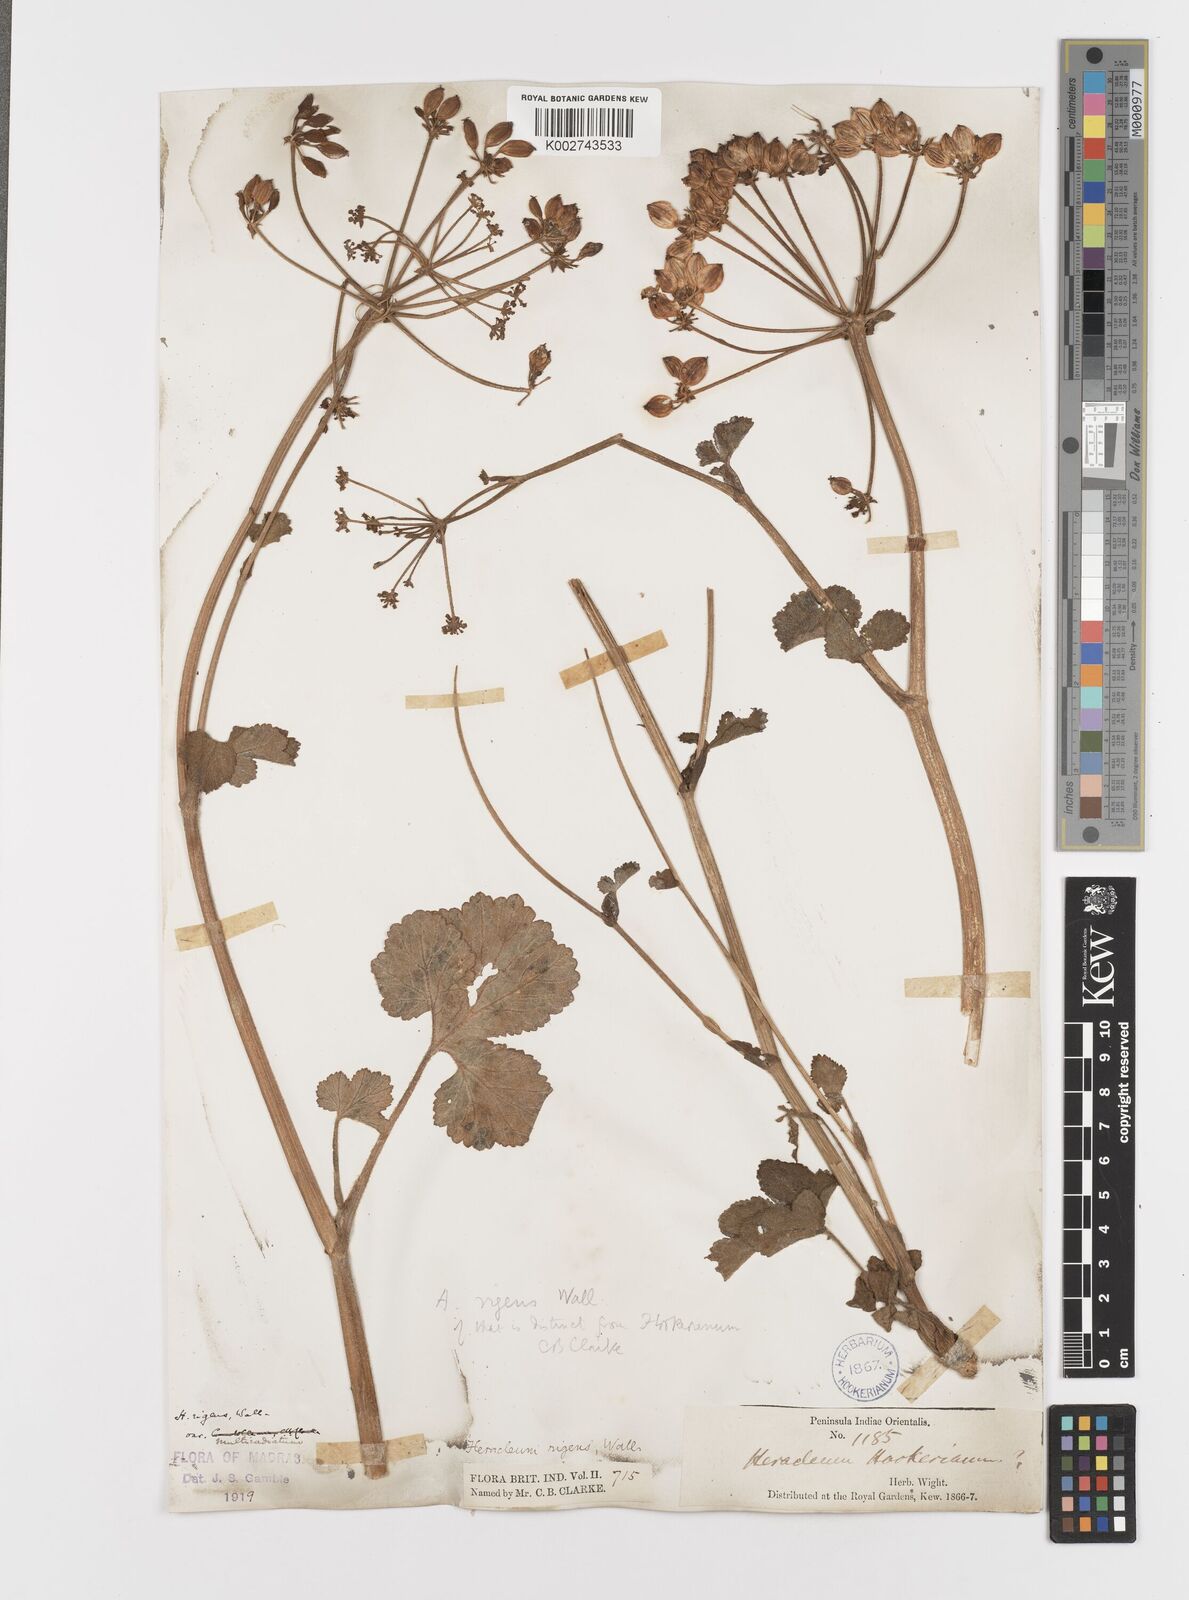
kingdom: Plantae
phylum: Tracheophyta
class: Magnoliopsida
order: Apiales
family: Apiaceae
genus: Tetrataenium
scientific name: Tetrataenium rigens
